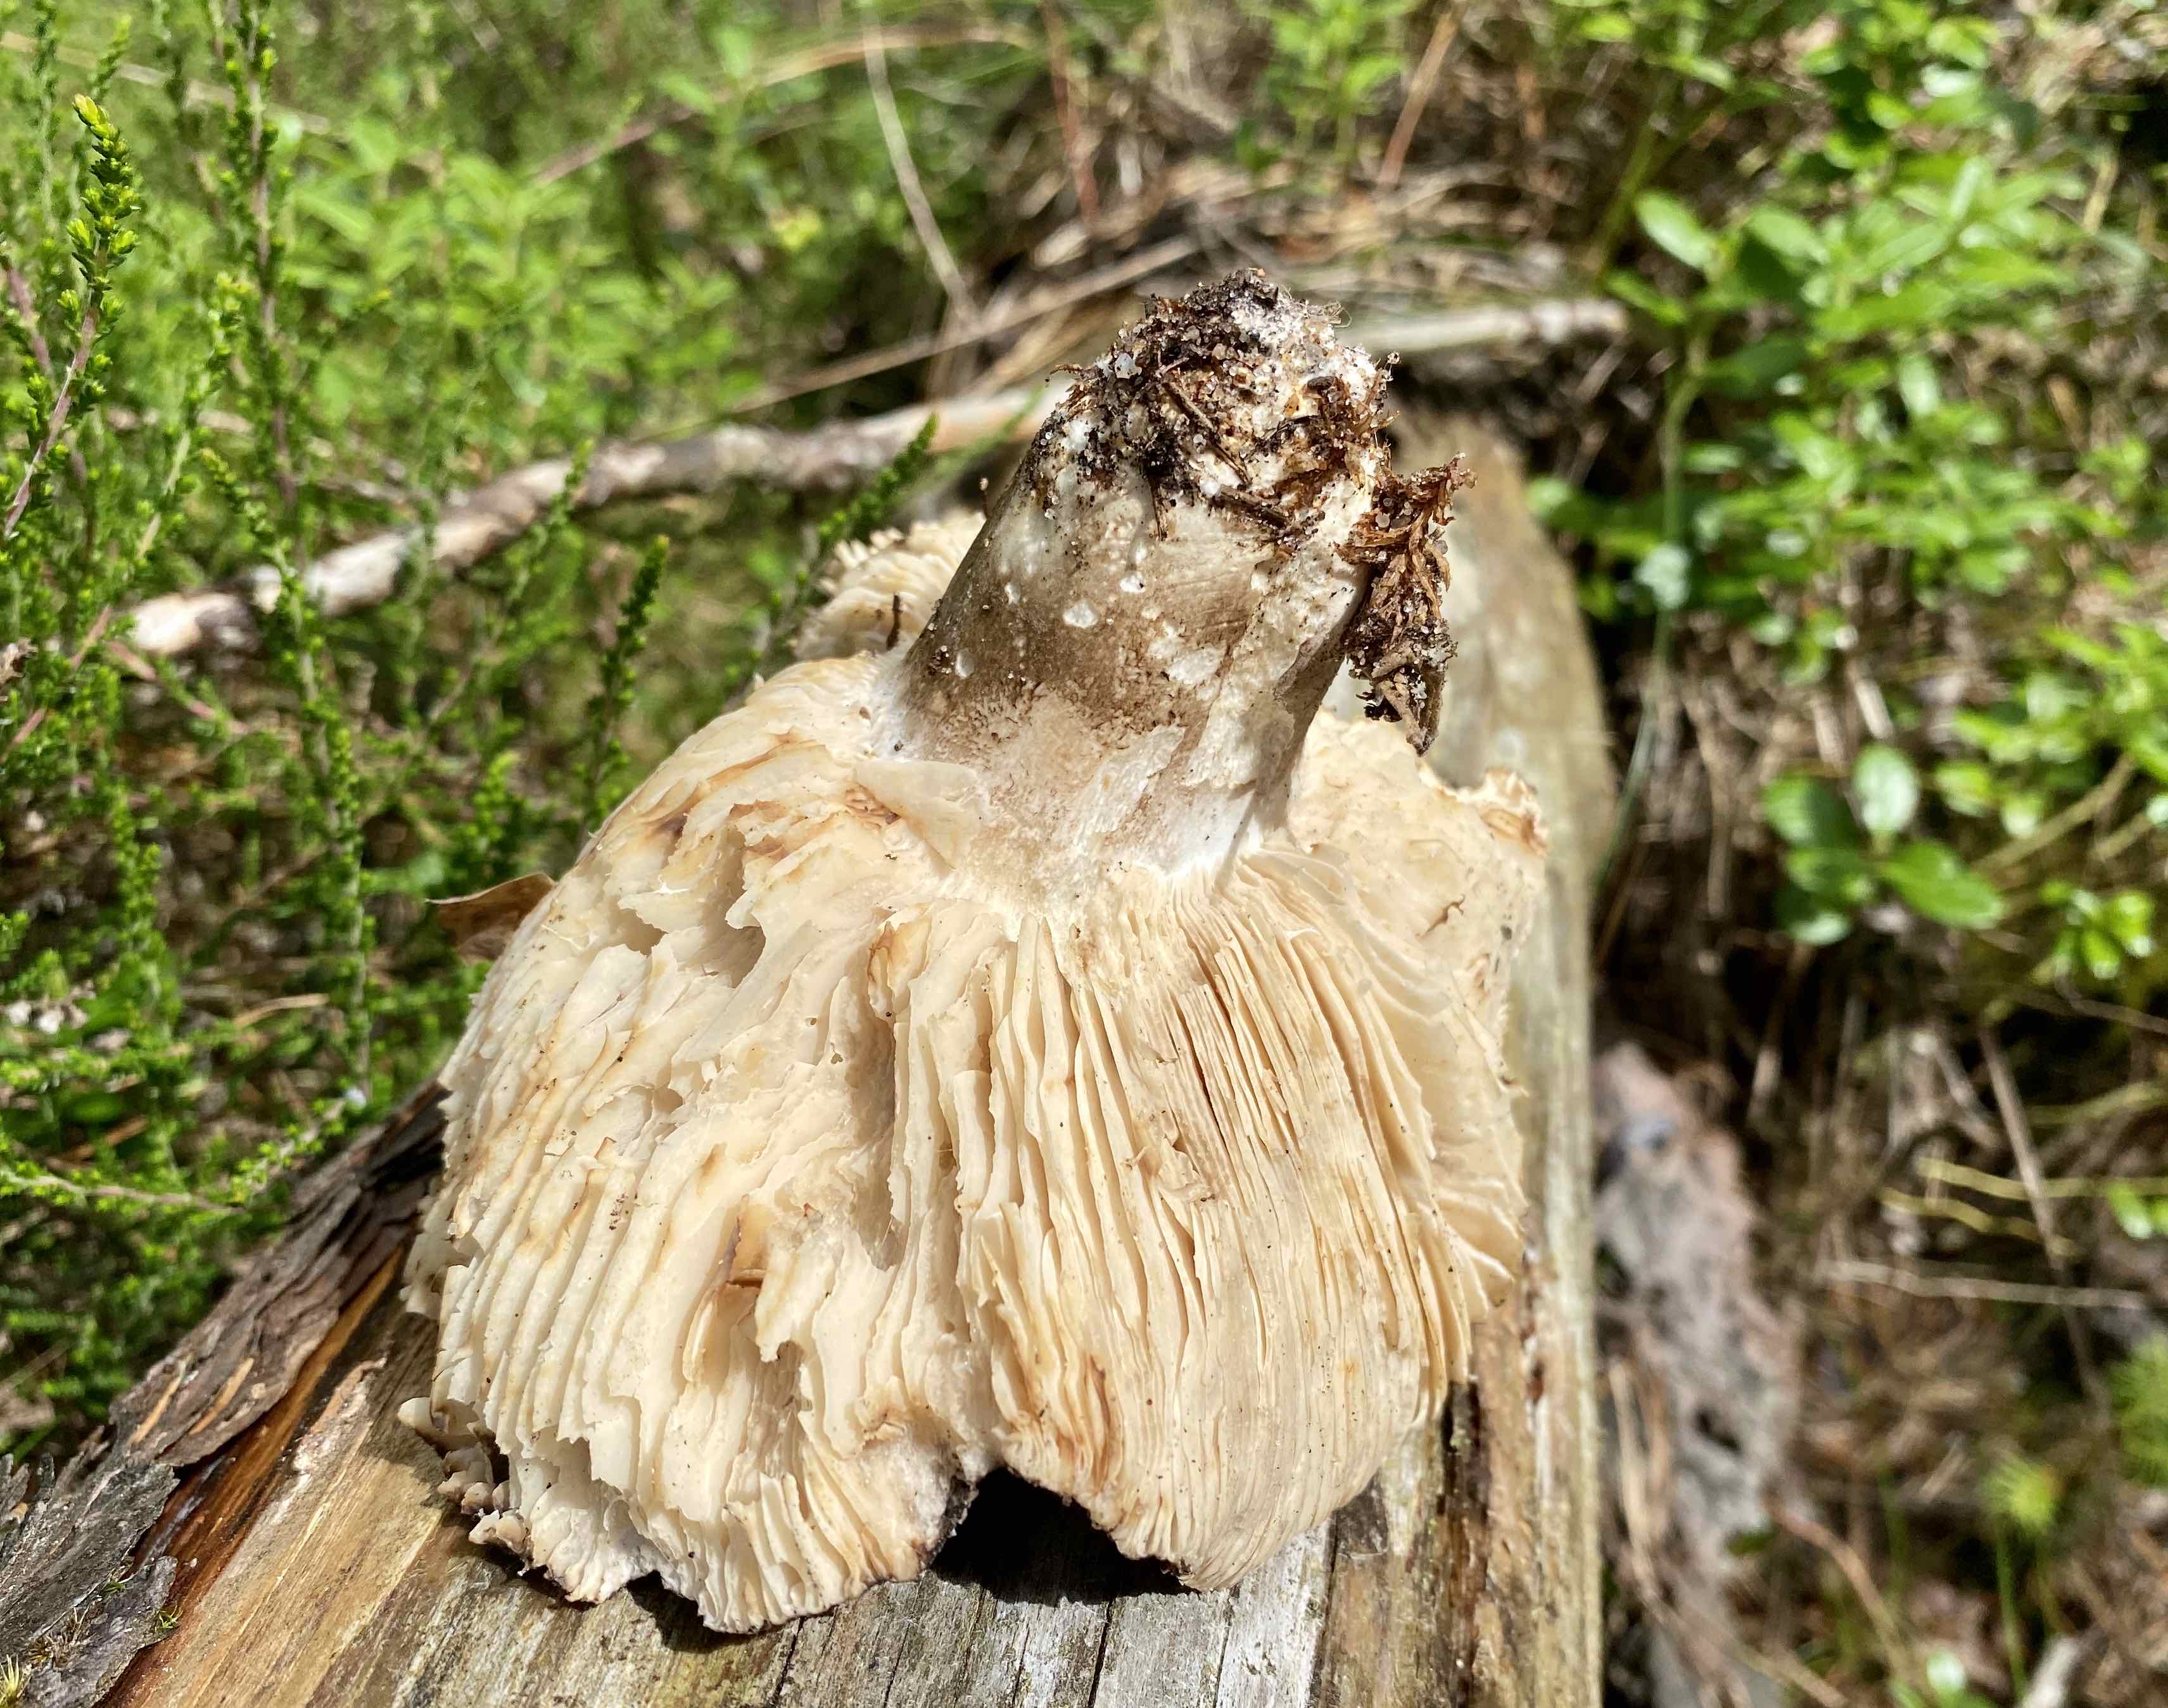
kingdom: Fungi
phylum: Basidiomycota
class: Agaricomycetes
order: Russulales
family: Russulaceae
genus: Russula
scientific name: Russula adusta
